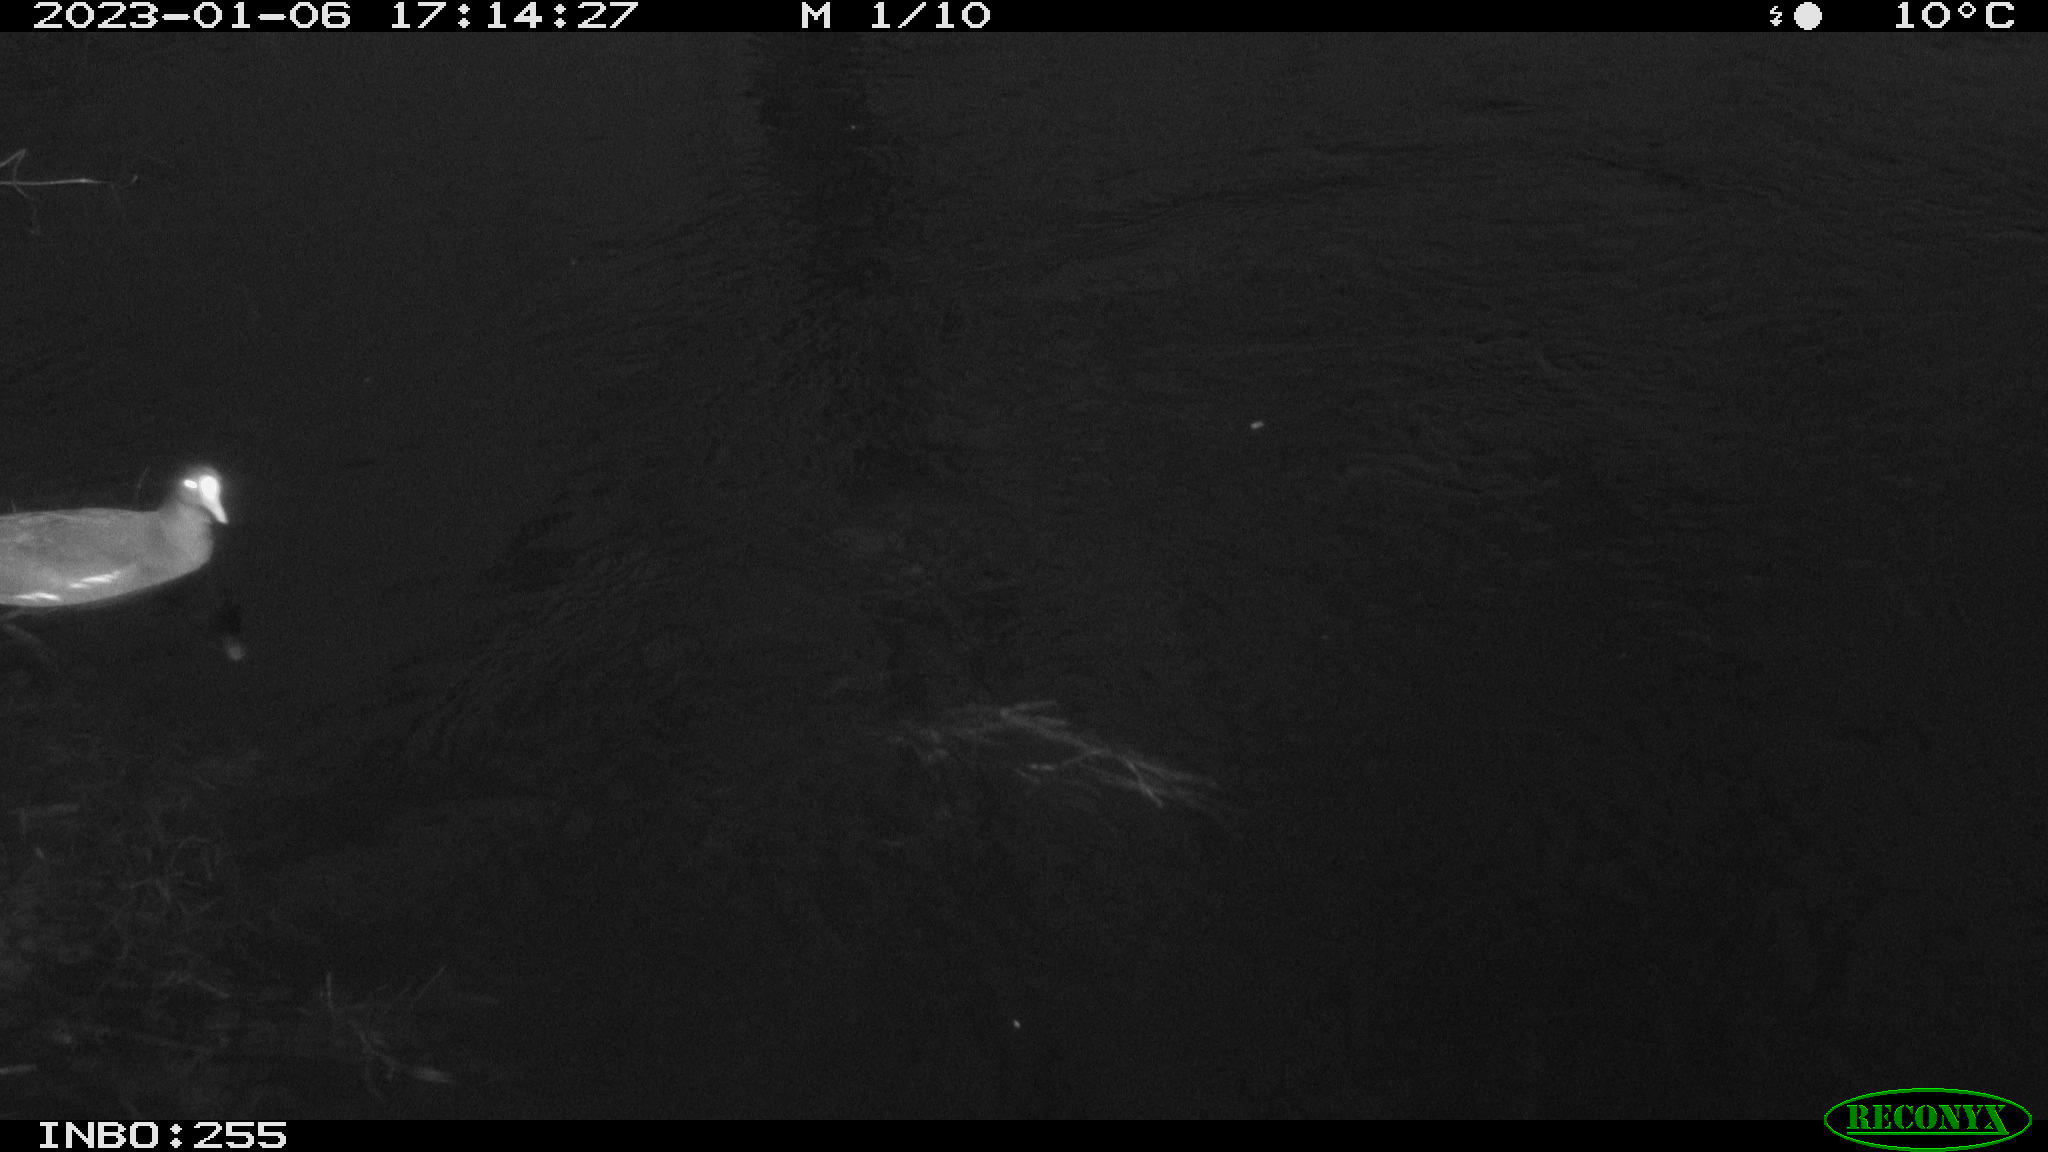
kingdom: Animalia
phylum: Chordata
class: Aves
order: Gruiformes
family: Rallidae
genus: Gallinula
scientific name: Gallinula chloropus
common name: Common moorhen
